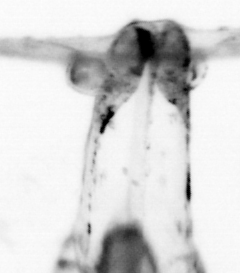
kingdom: Animalia
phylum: Chaetognatha
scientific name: Chaetognatha
